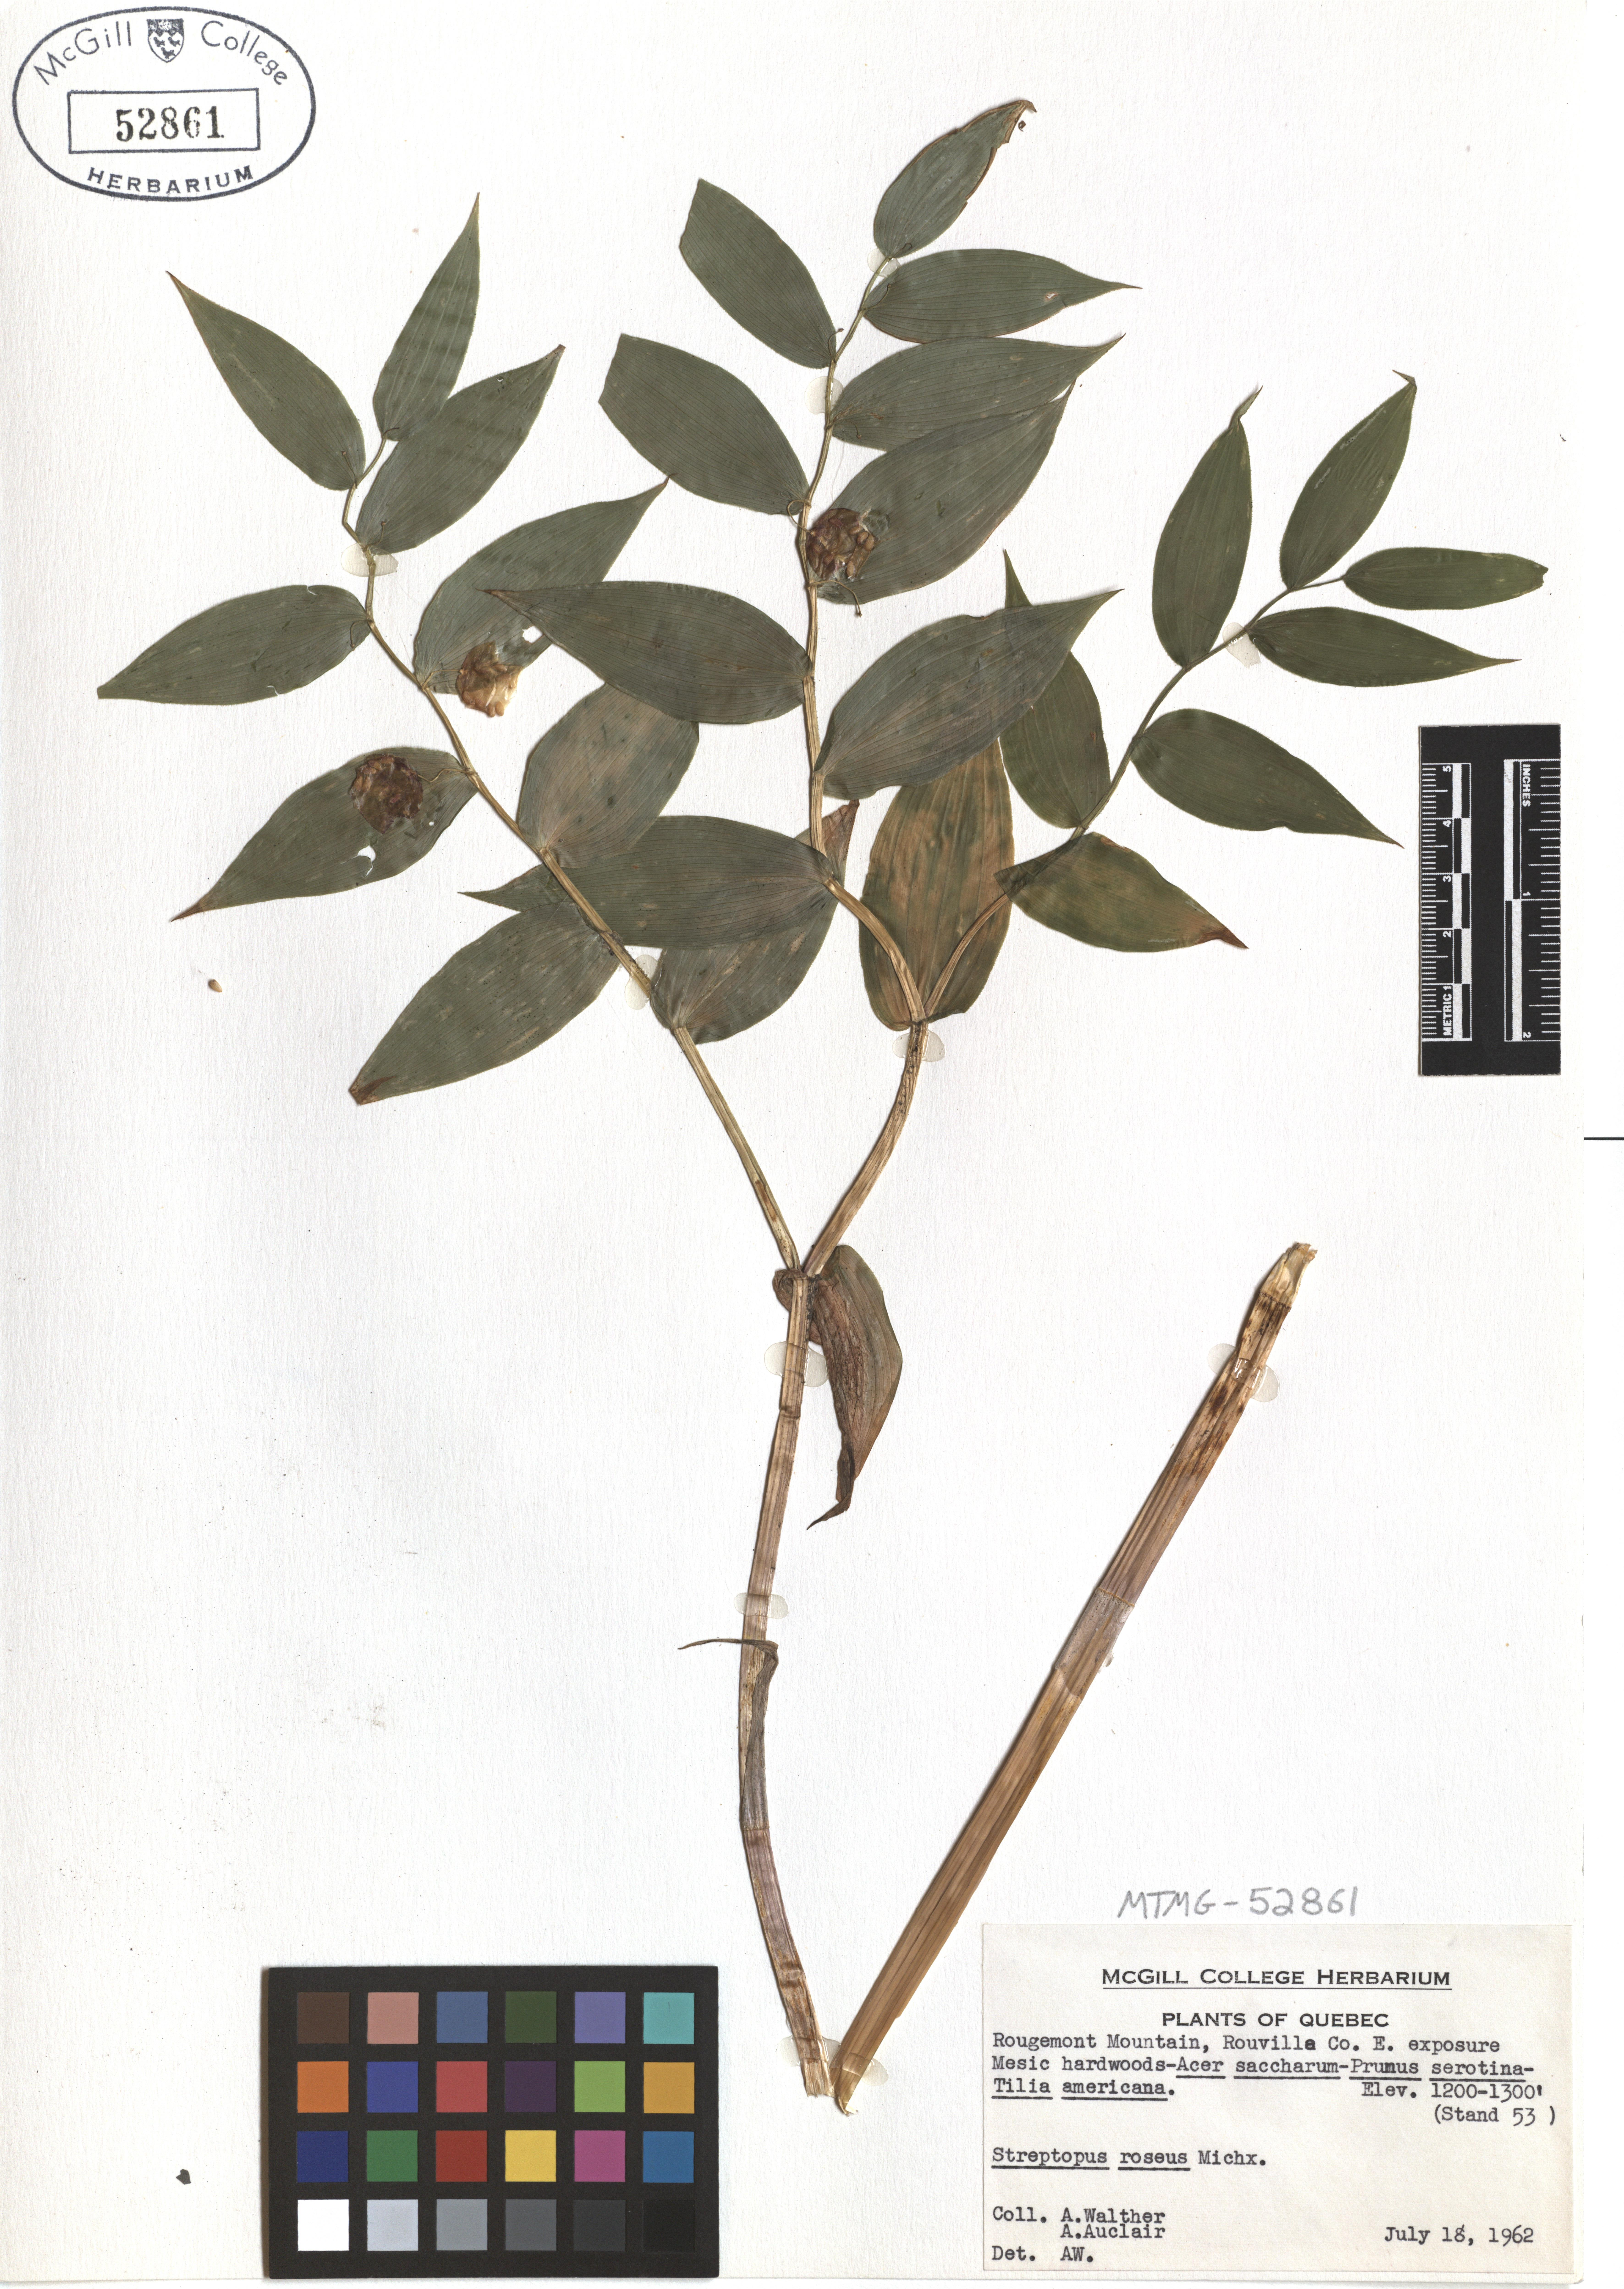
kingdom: Plantae
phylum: Tracheophyta
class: Liliopsida
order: Liliales
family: Liliaceae
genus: Streptopus
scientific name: Streptopus lanceolatus
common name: Rose mandarin
